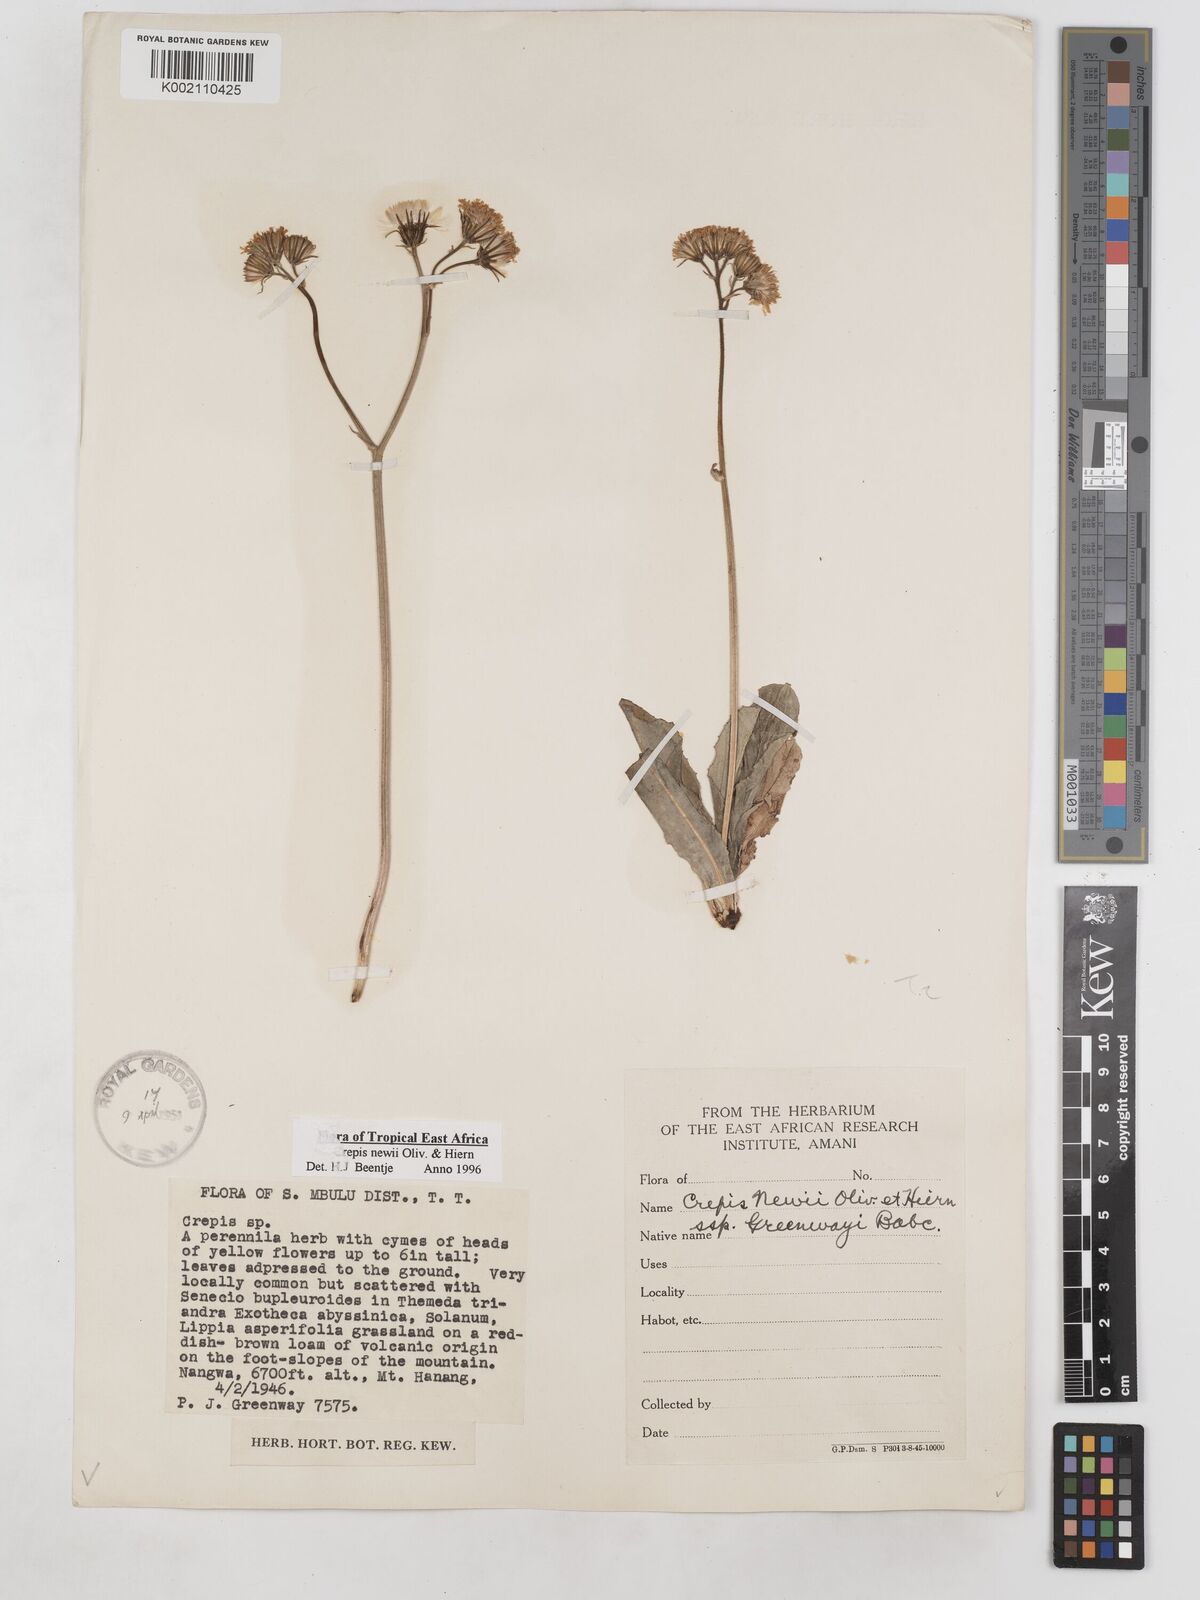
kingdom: Plantae
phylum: Tracheophyta
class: Magnoliopsida
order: Asterales
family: Asteraceae
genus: Crepis
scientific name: Crepis hypochoeridea
